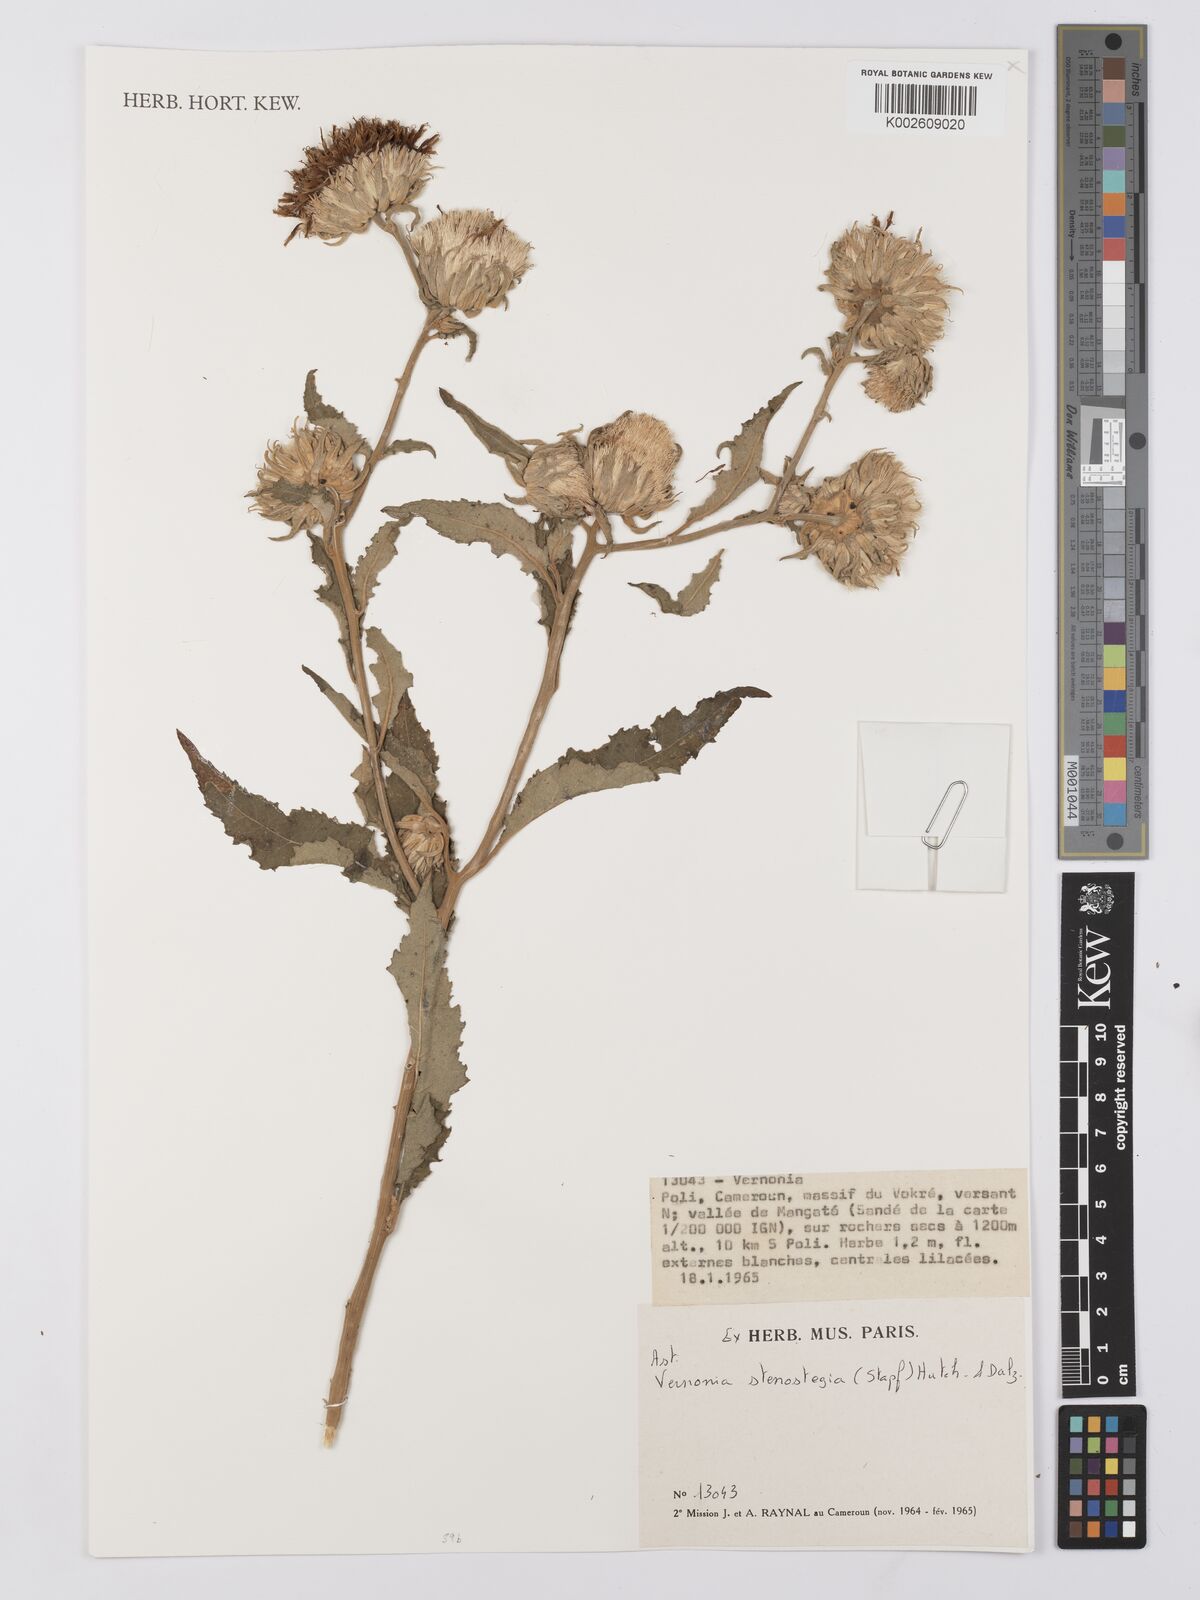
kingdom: Plantae
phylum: Tracheophyta
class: Magnoliopsida
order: Asterales
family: Asteraceae
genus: Baccharoides
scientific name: Baccharoides stenostegia
